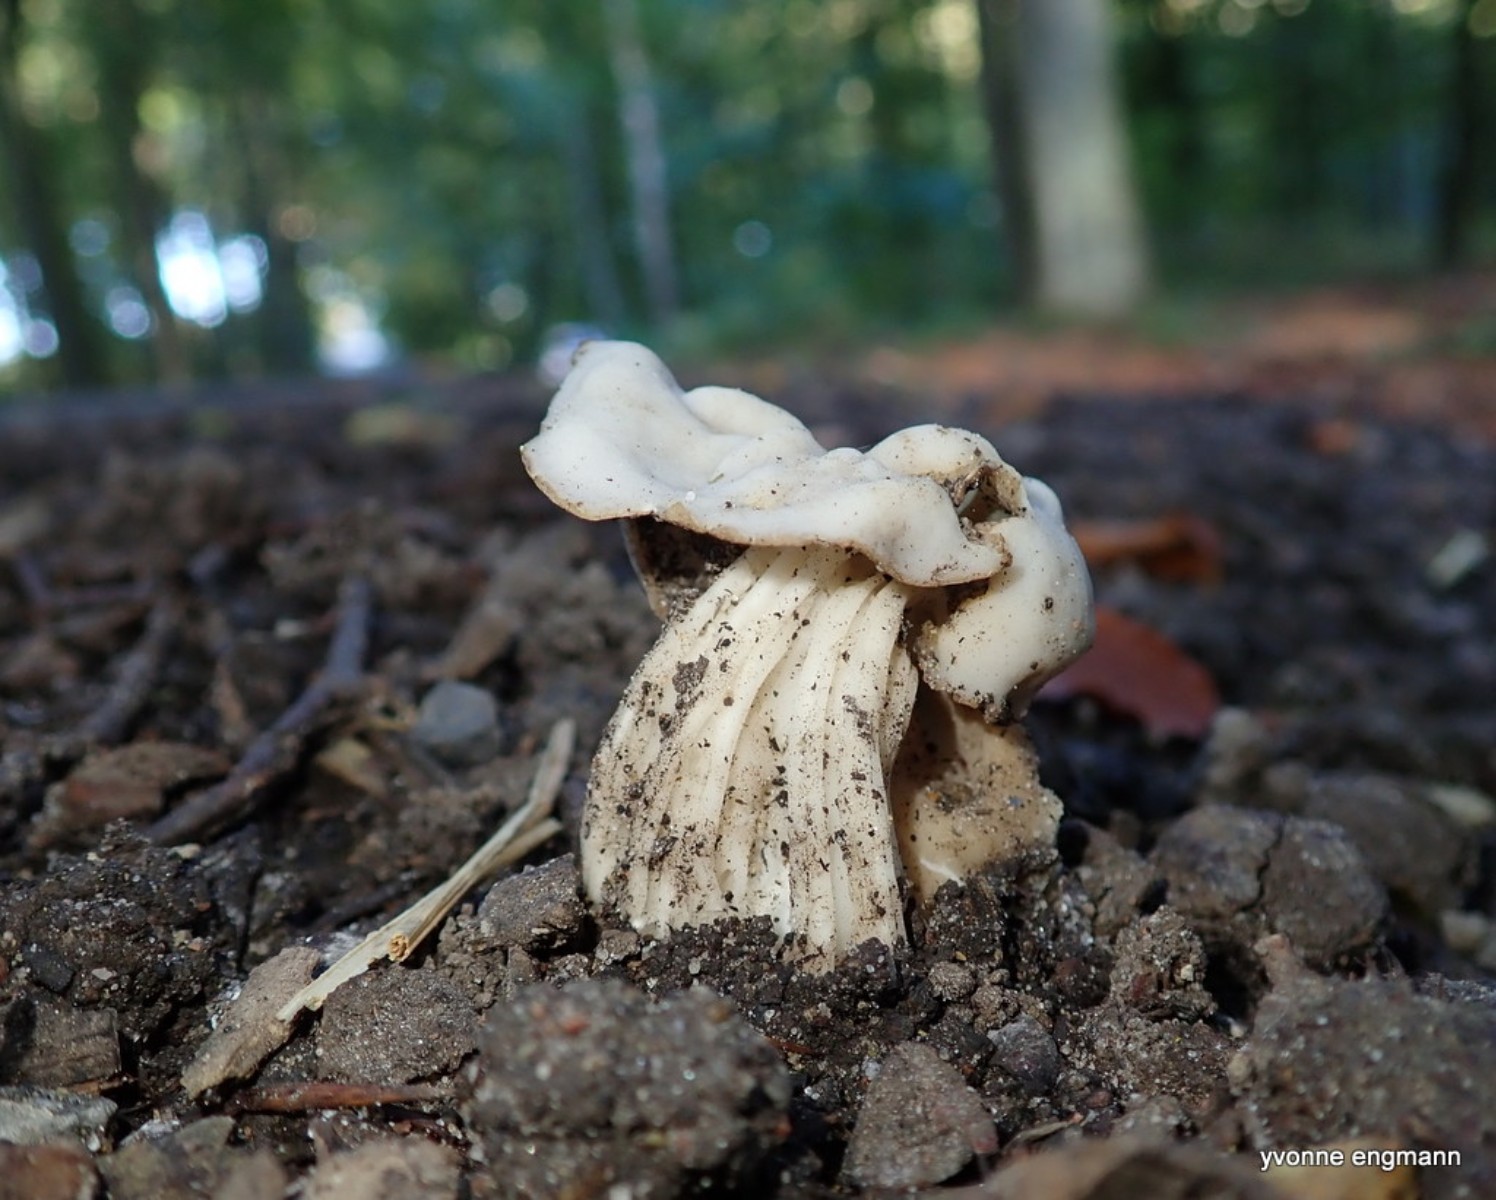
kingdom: Fungi
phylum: Ascomycota
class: Pezizomycetes
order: Pezizales
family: Helvellaceae
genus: Helvella
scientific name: Helvella crispa
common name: kruset foldhat
